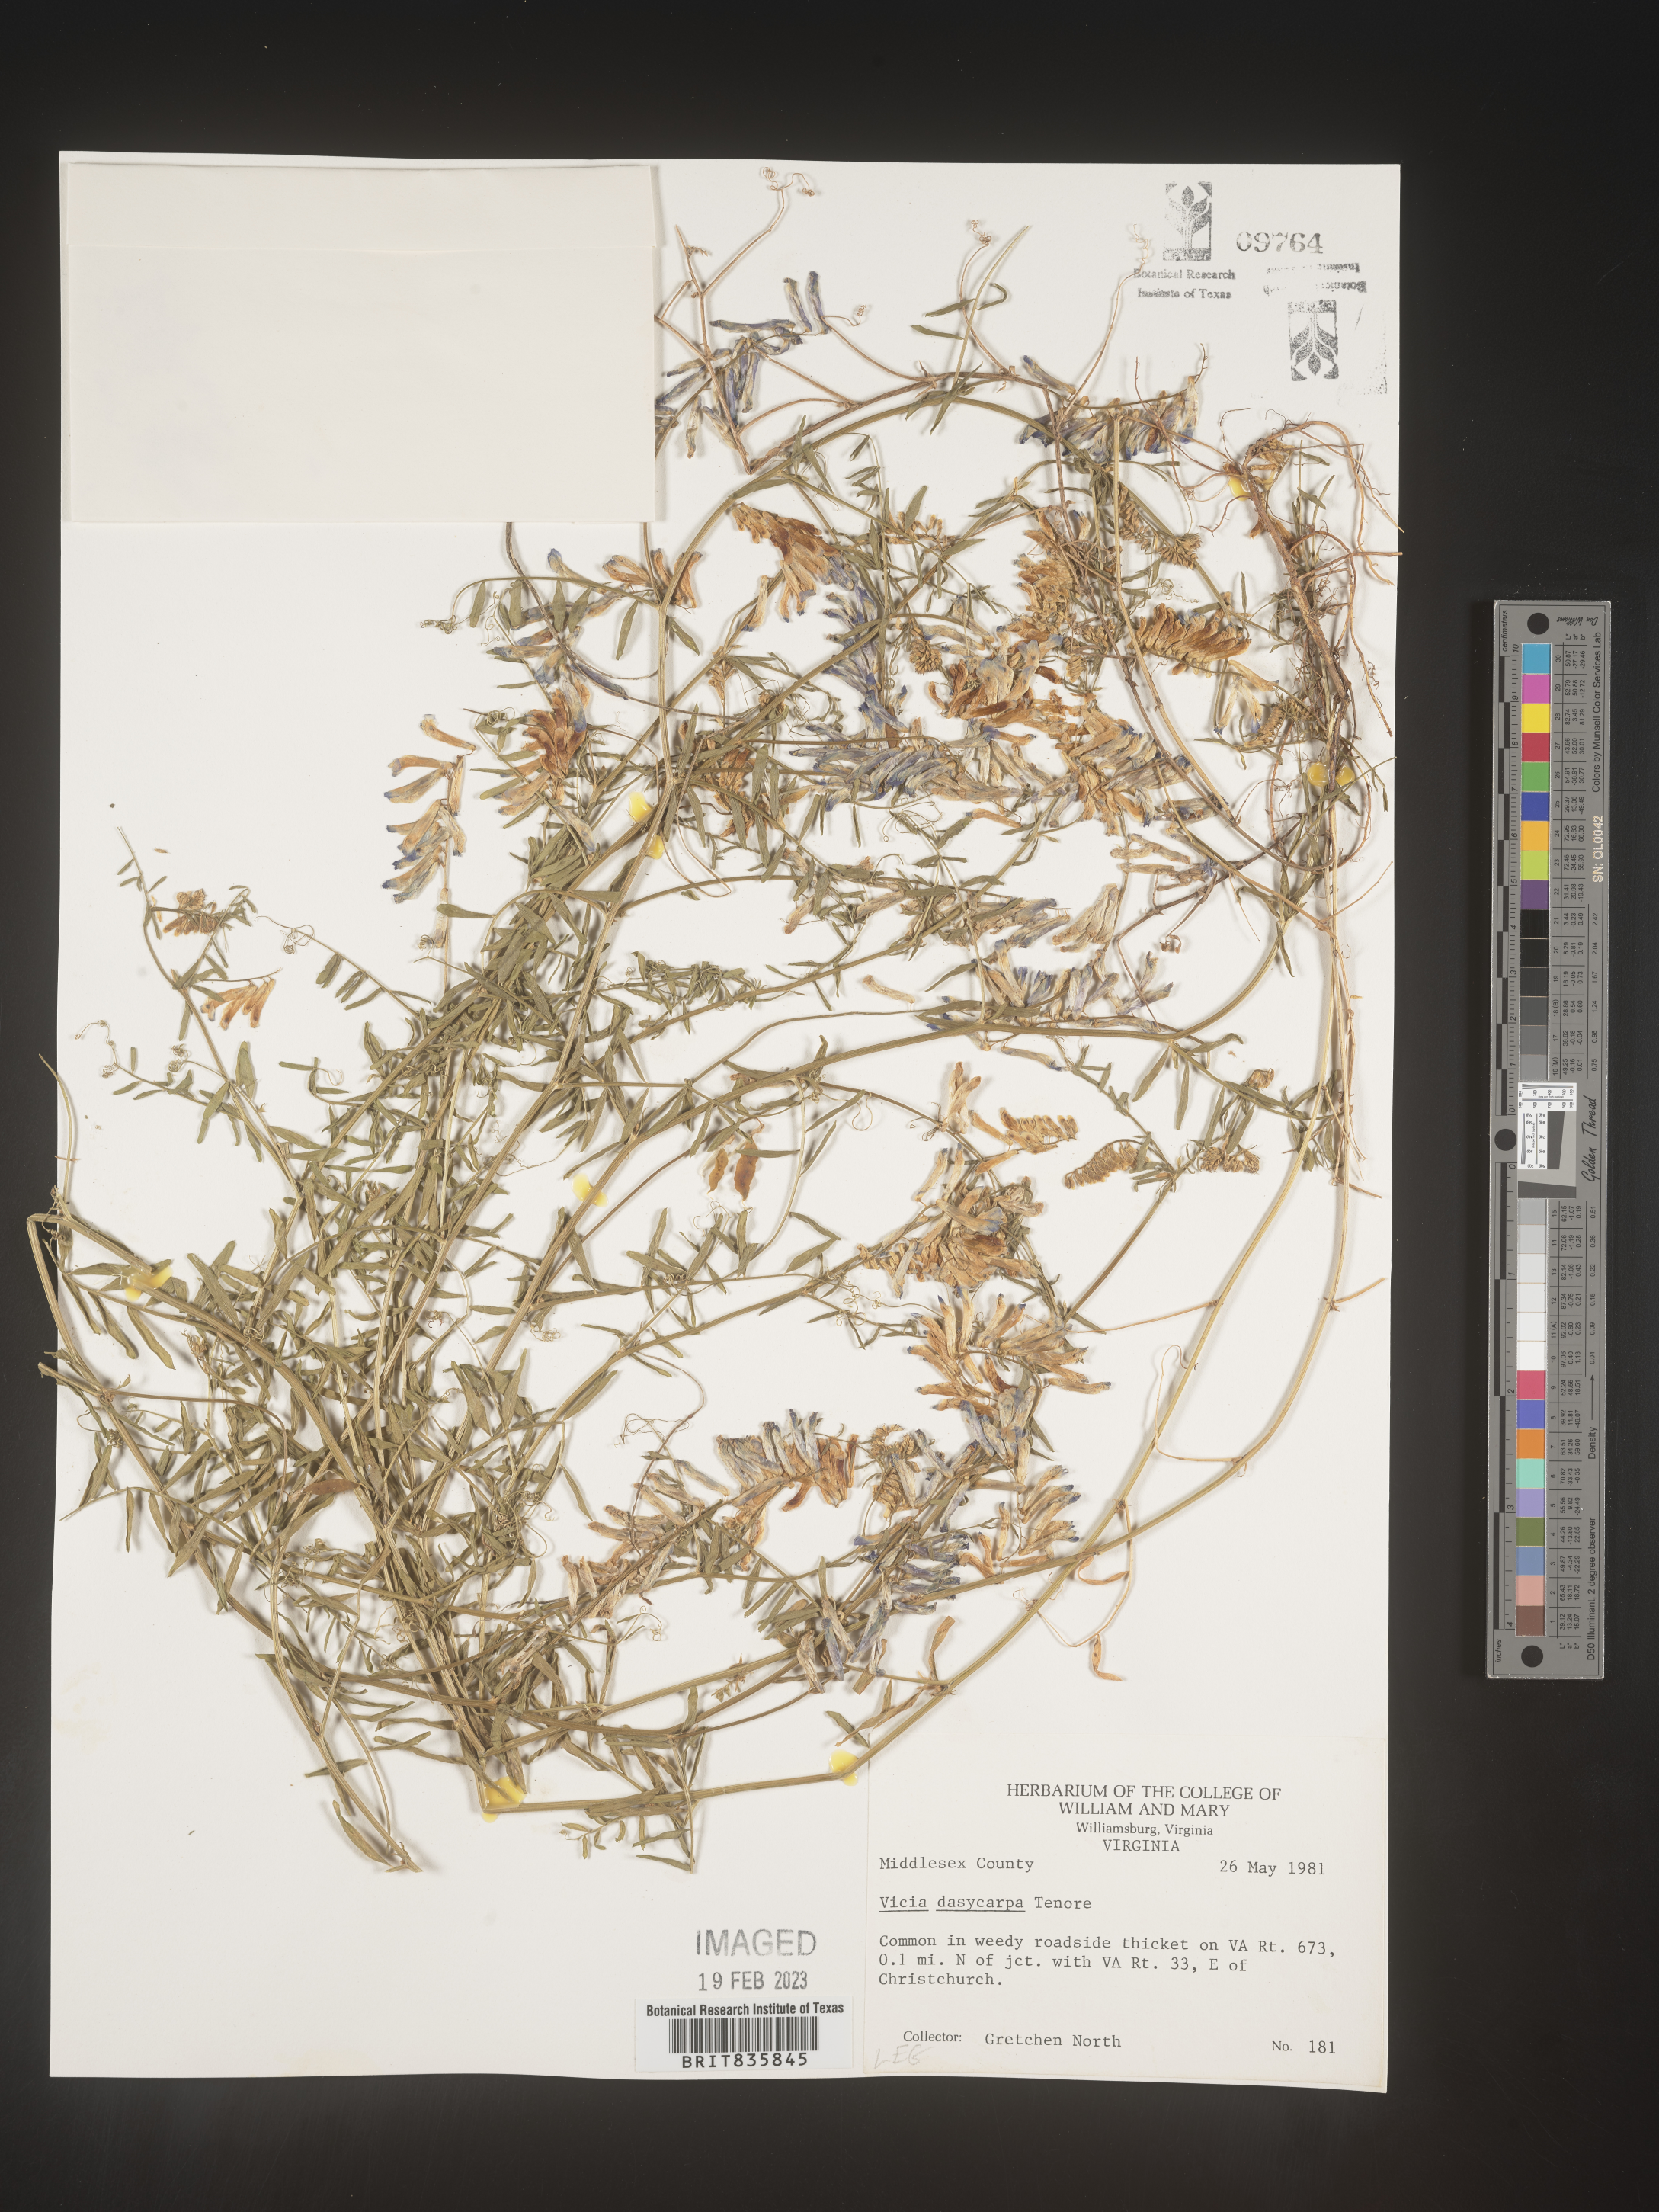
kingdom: Plantae
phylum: Tracheophyta
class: Magnoliopsida
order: Fabales
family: Fabaceae
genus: Vicia
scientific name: Vicia villosa
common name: Fodder vetch
